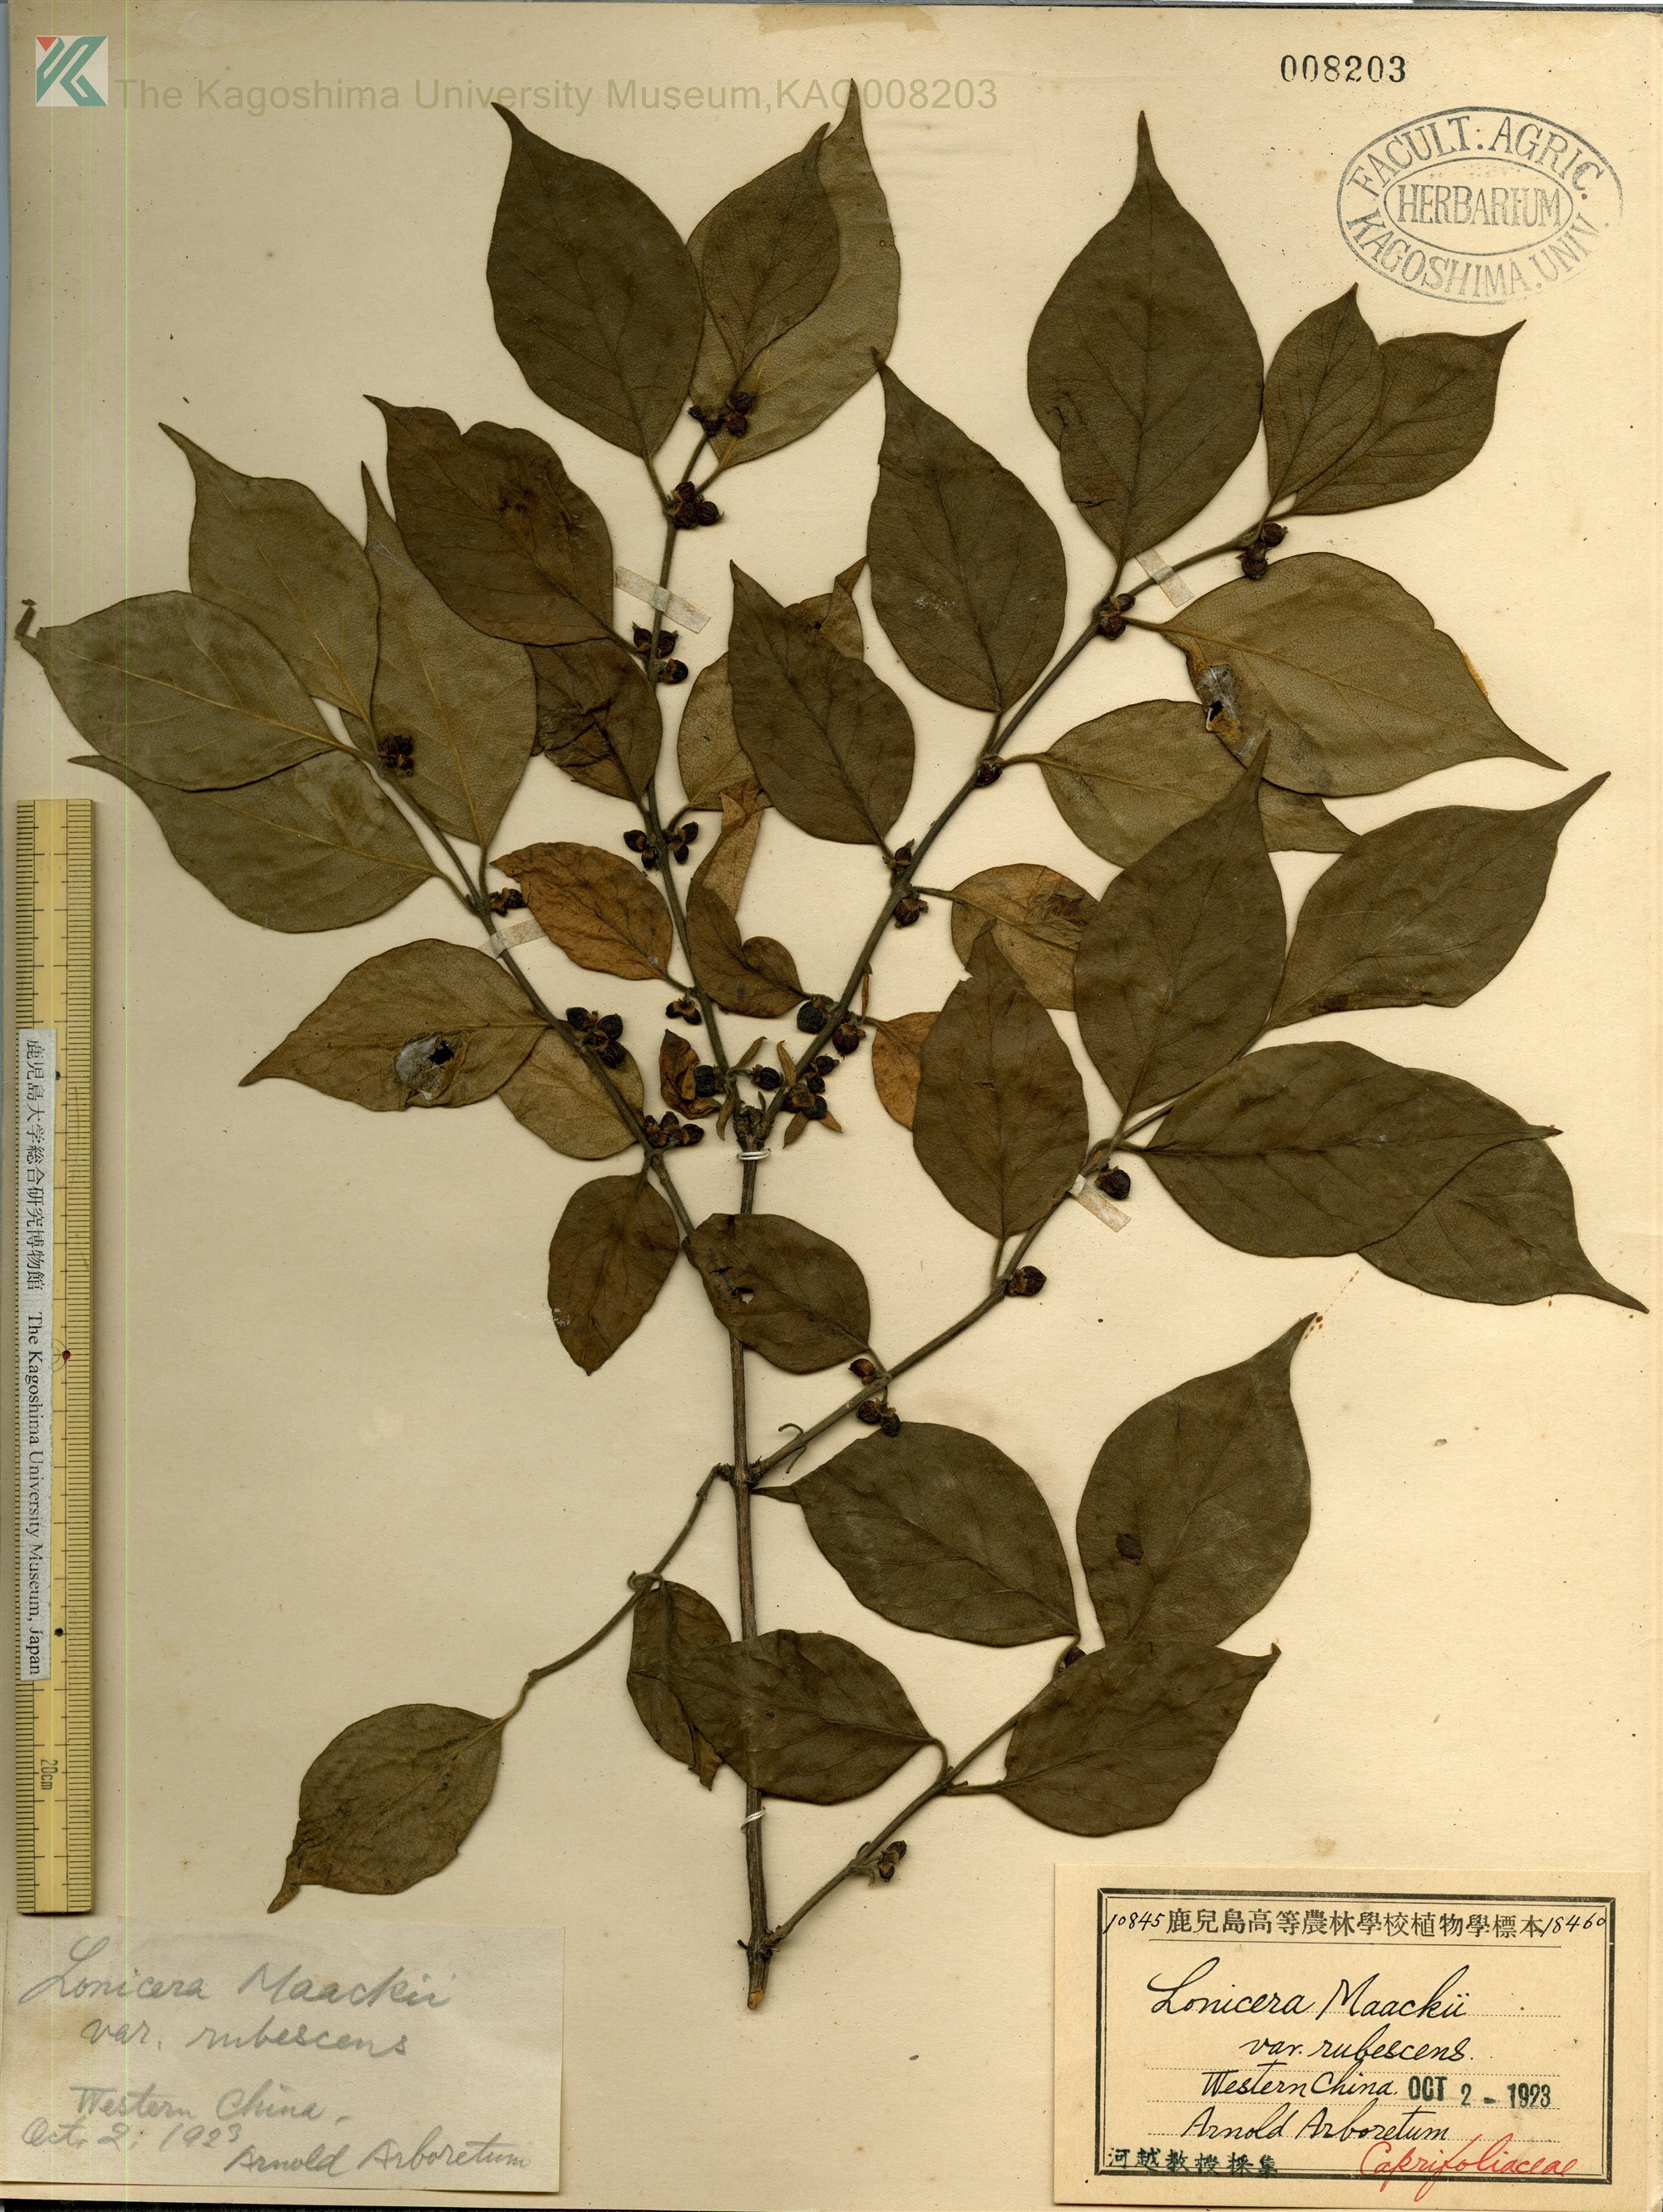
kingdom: Plantae
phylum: Tracheophyta
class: Magnoliopsida
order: Dipsacales
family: Caprifoliaceae
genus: Lonicera
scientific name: Lonicera maackii
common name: Amur honeysuckle
